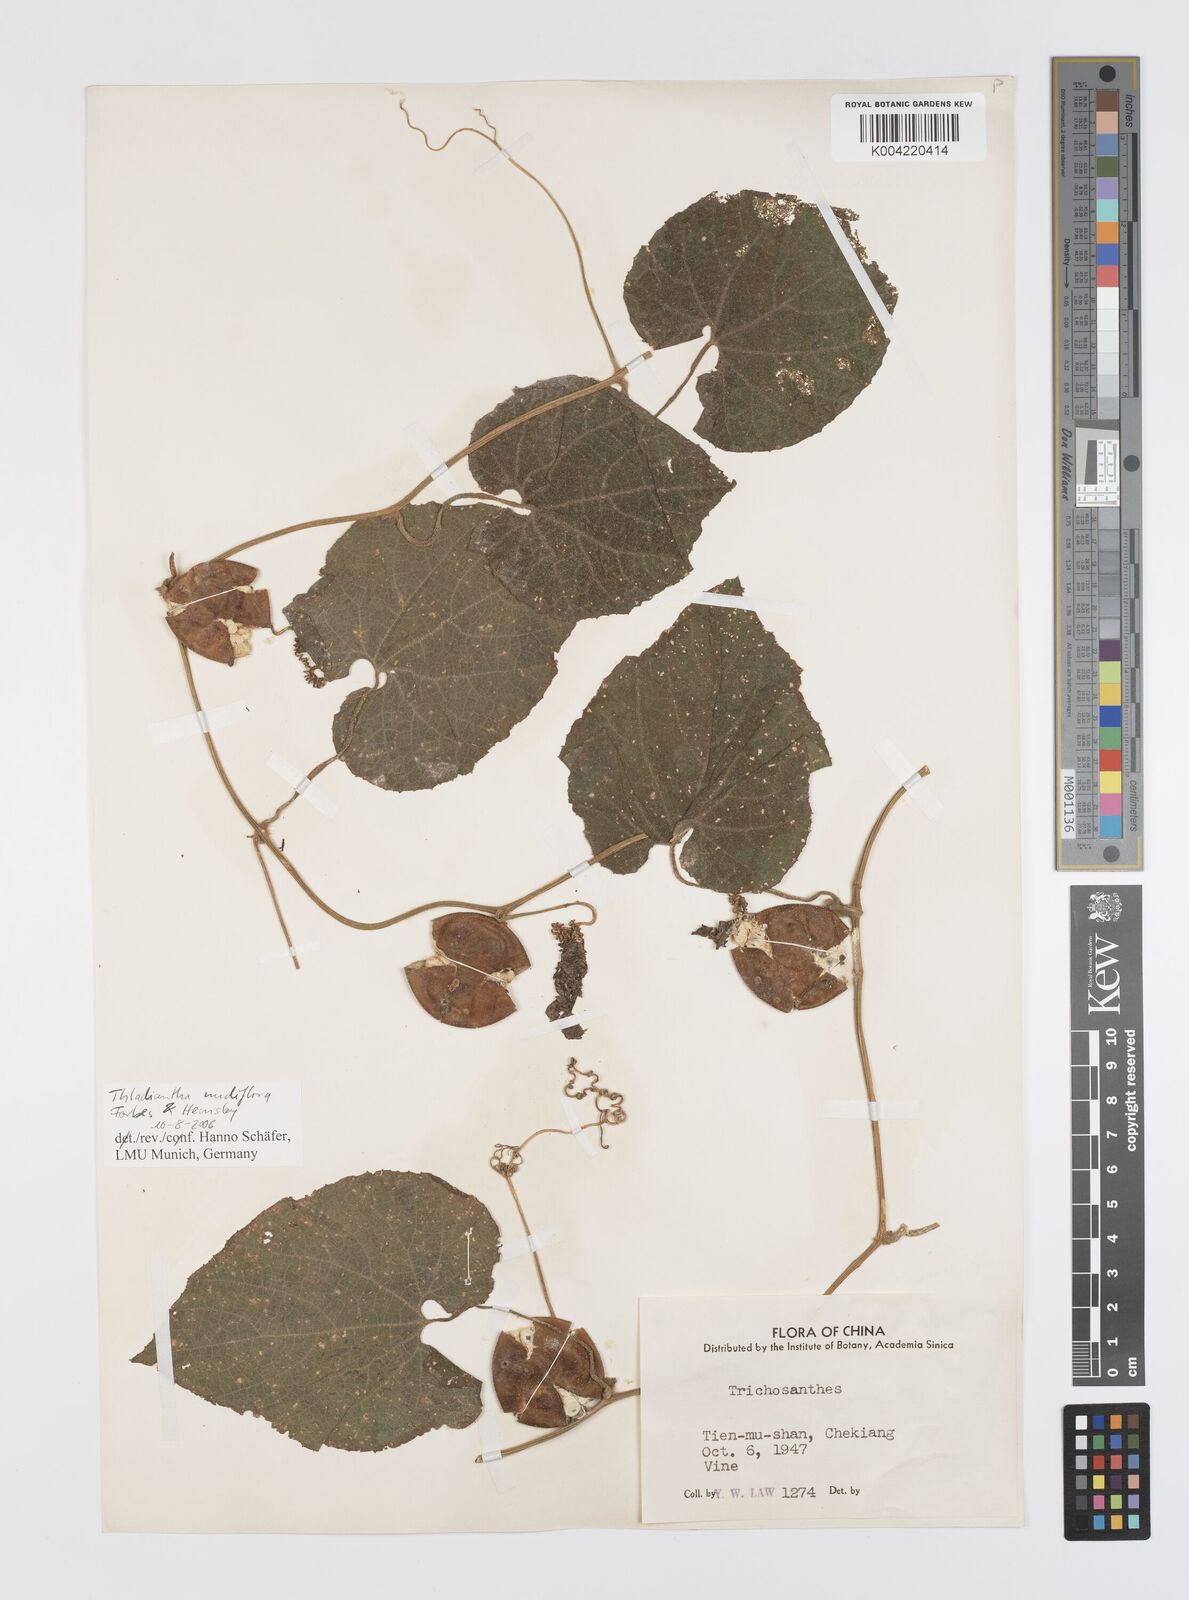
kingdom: Plantae
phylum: Tracheophyta
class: Magnoliopsida
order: Cucurbitales
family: Cucurbitaceae
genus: Thladiantha
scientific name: Thladiantha nudiflora
